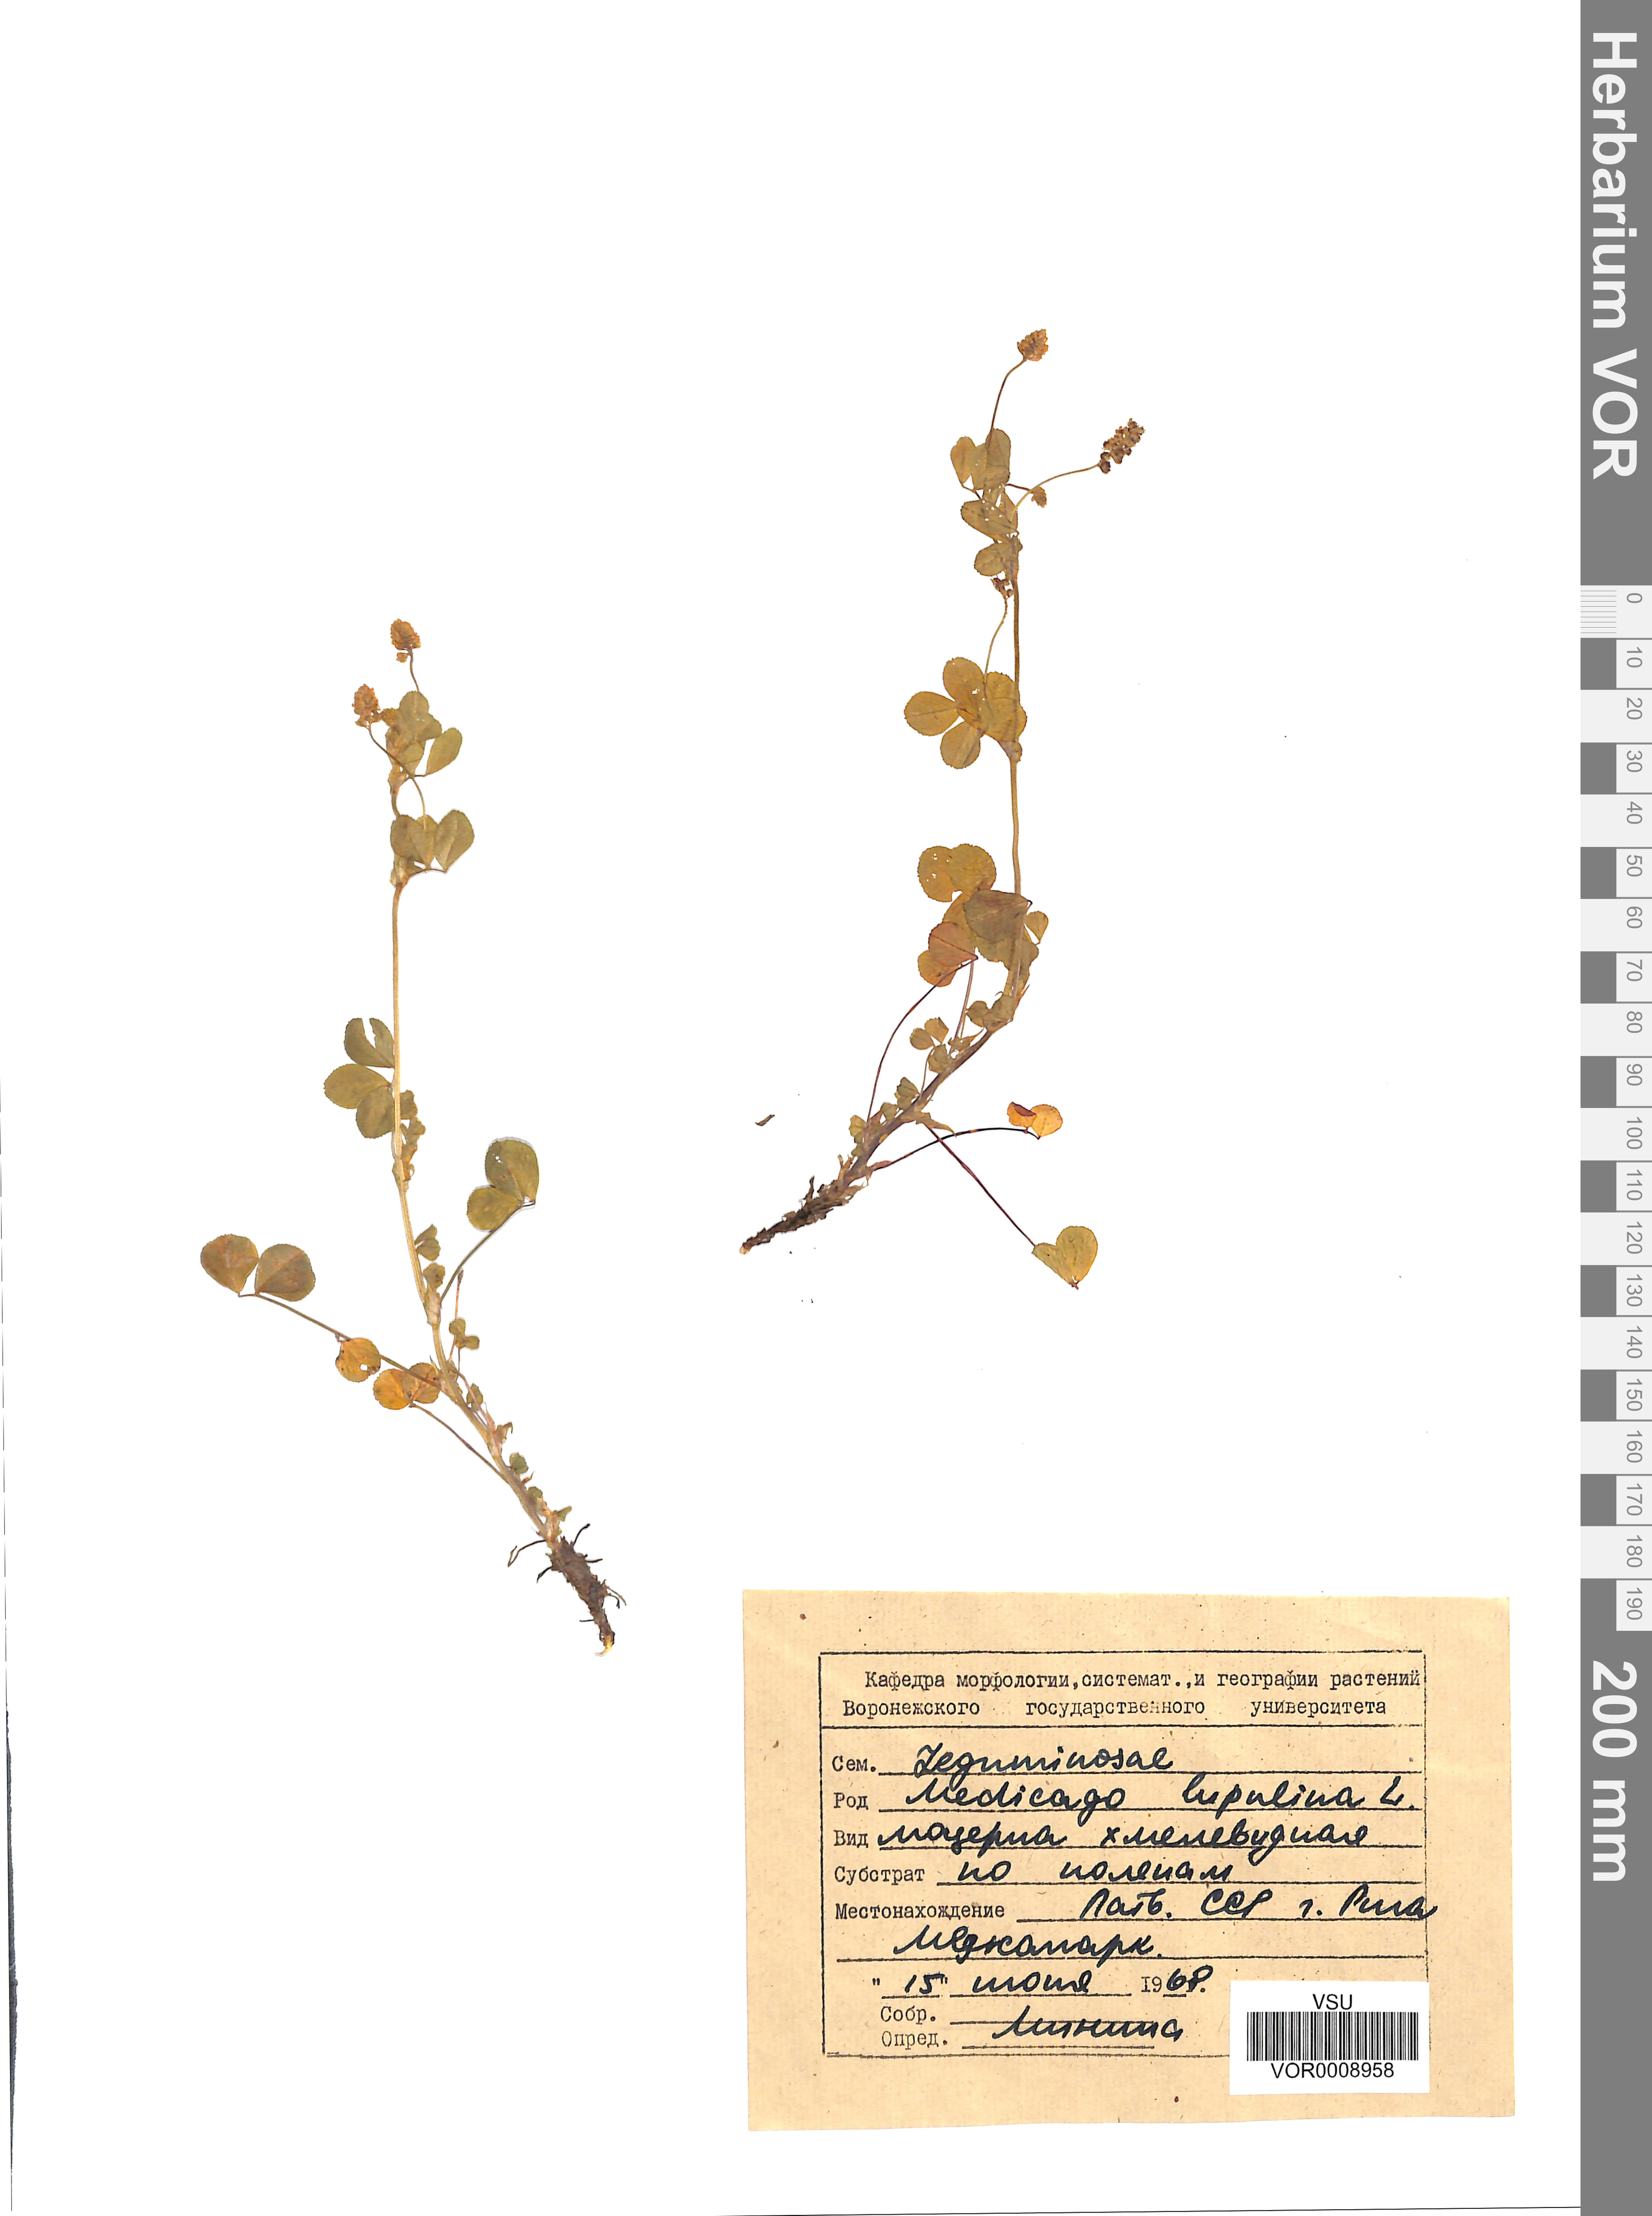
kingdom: Plantae
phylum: Tracheophyta
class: Magnoliopsida
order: Fabales
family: Fabaceae
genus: Medicago
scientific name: Medicago lupulina
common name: Black medick
